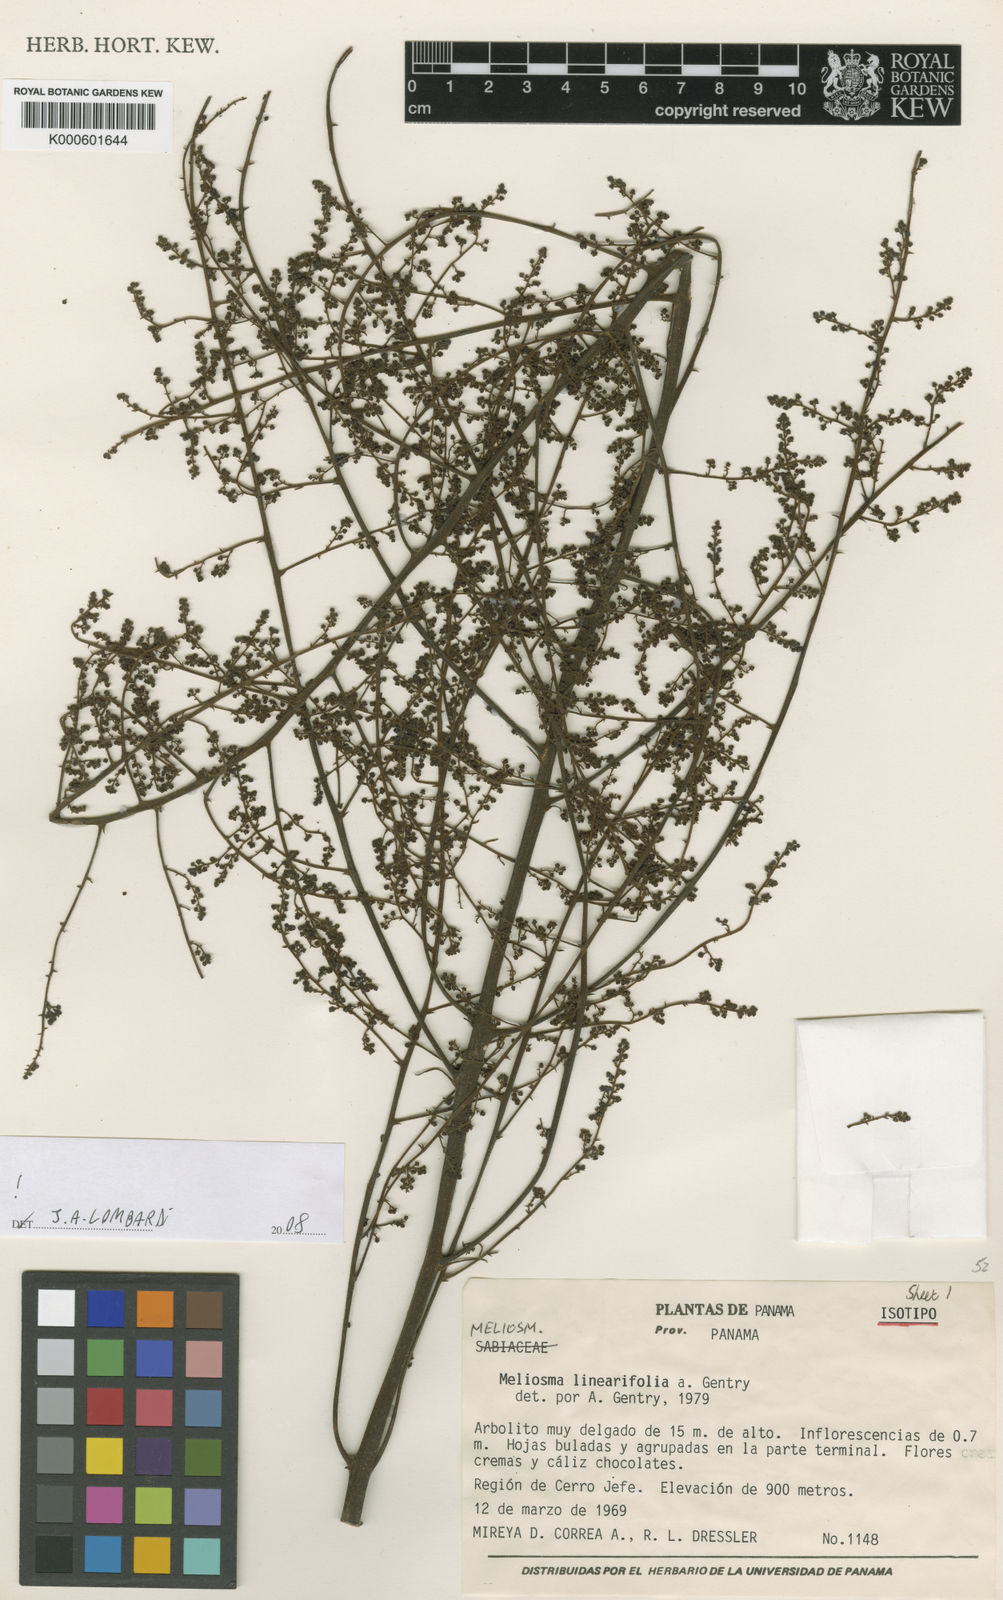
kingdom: Plantae
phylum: Tracheophyta
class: Magnoliopsida
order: Proteales
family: Sabiaceae
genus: Meliosma
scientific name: Meliosma linearifolia
